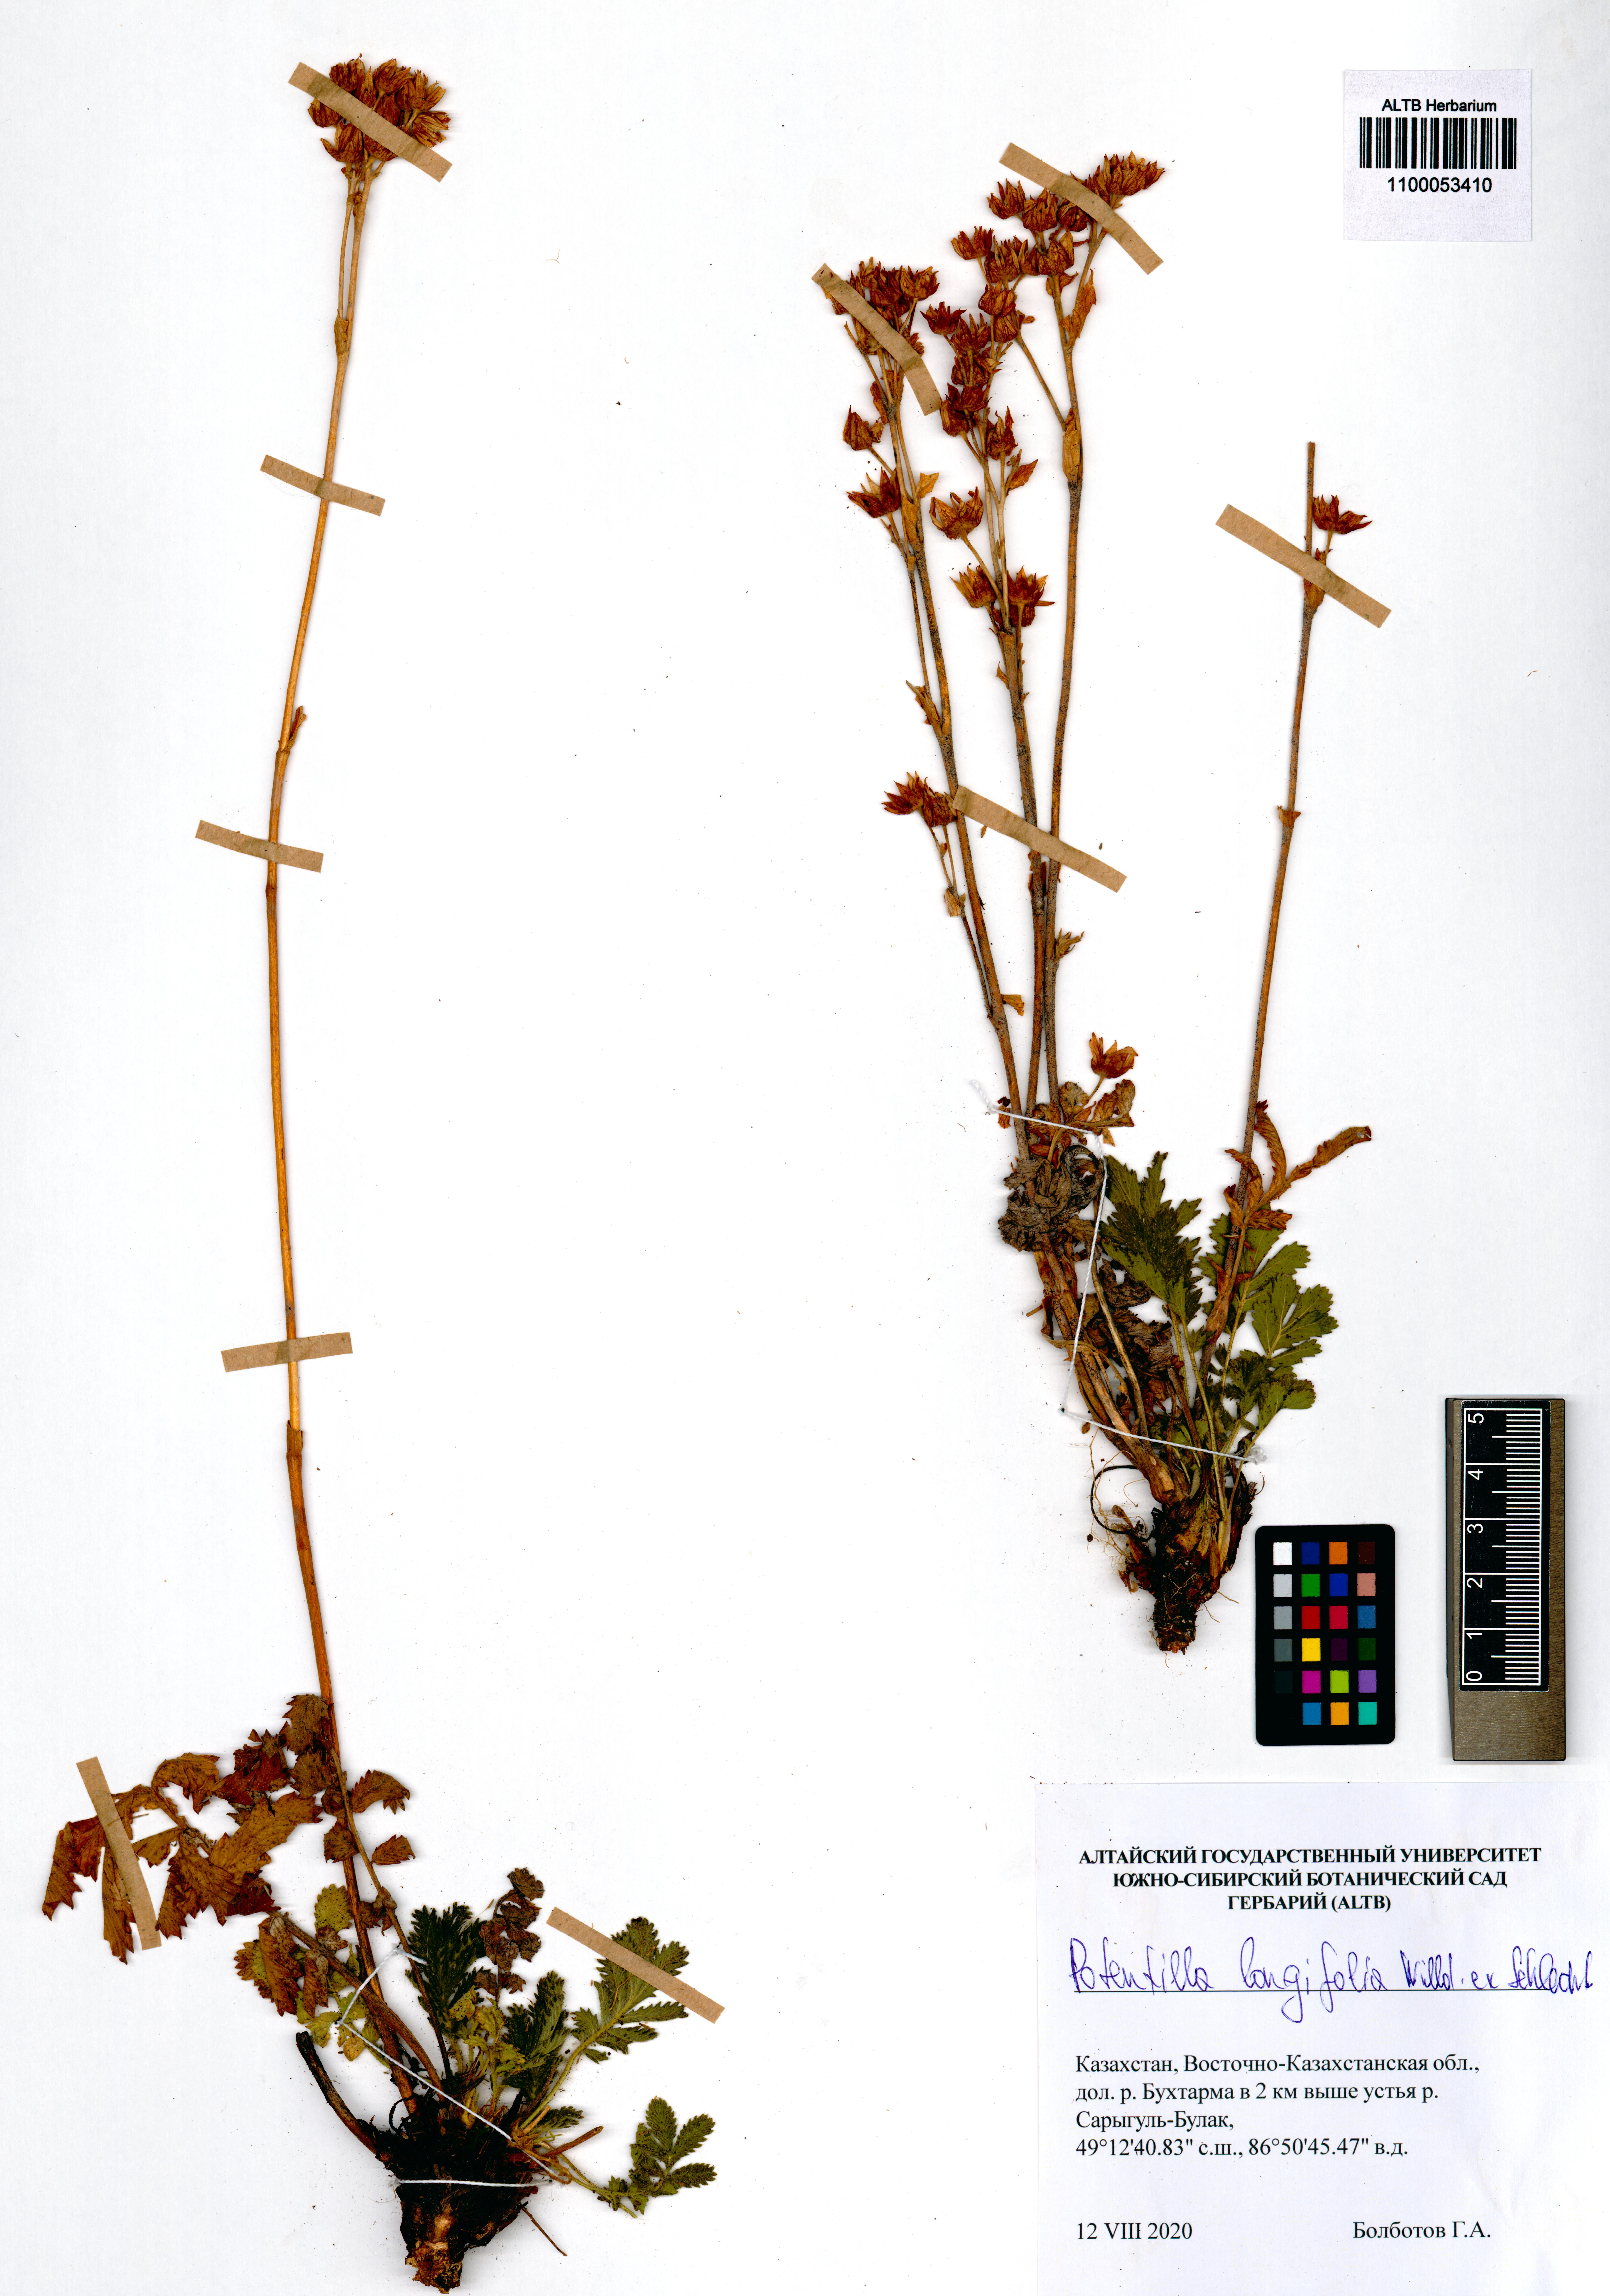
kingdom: Plantae
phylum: Tracheophyta
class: Magnoliopsida
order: Rosales
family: Rosaceae
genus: Potentilla
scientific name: Potentilla longifolia
